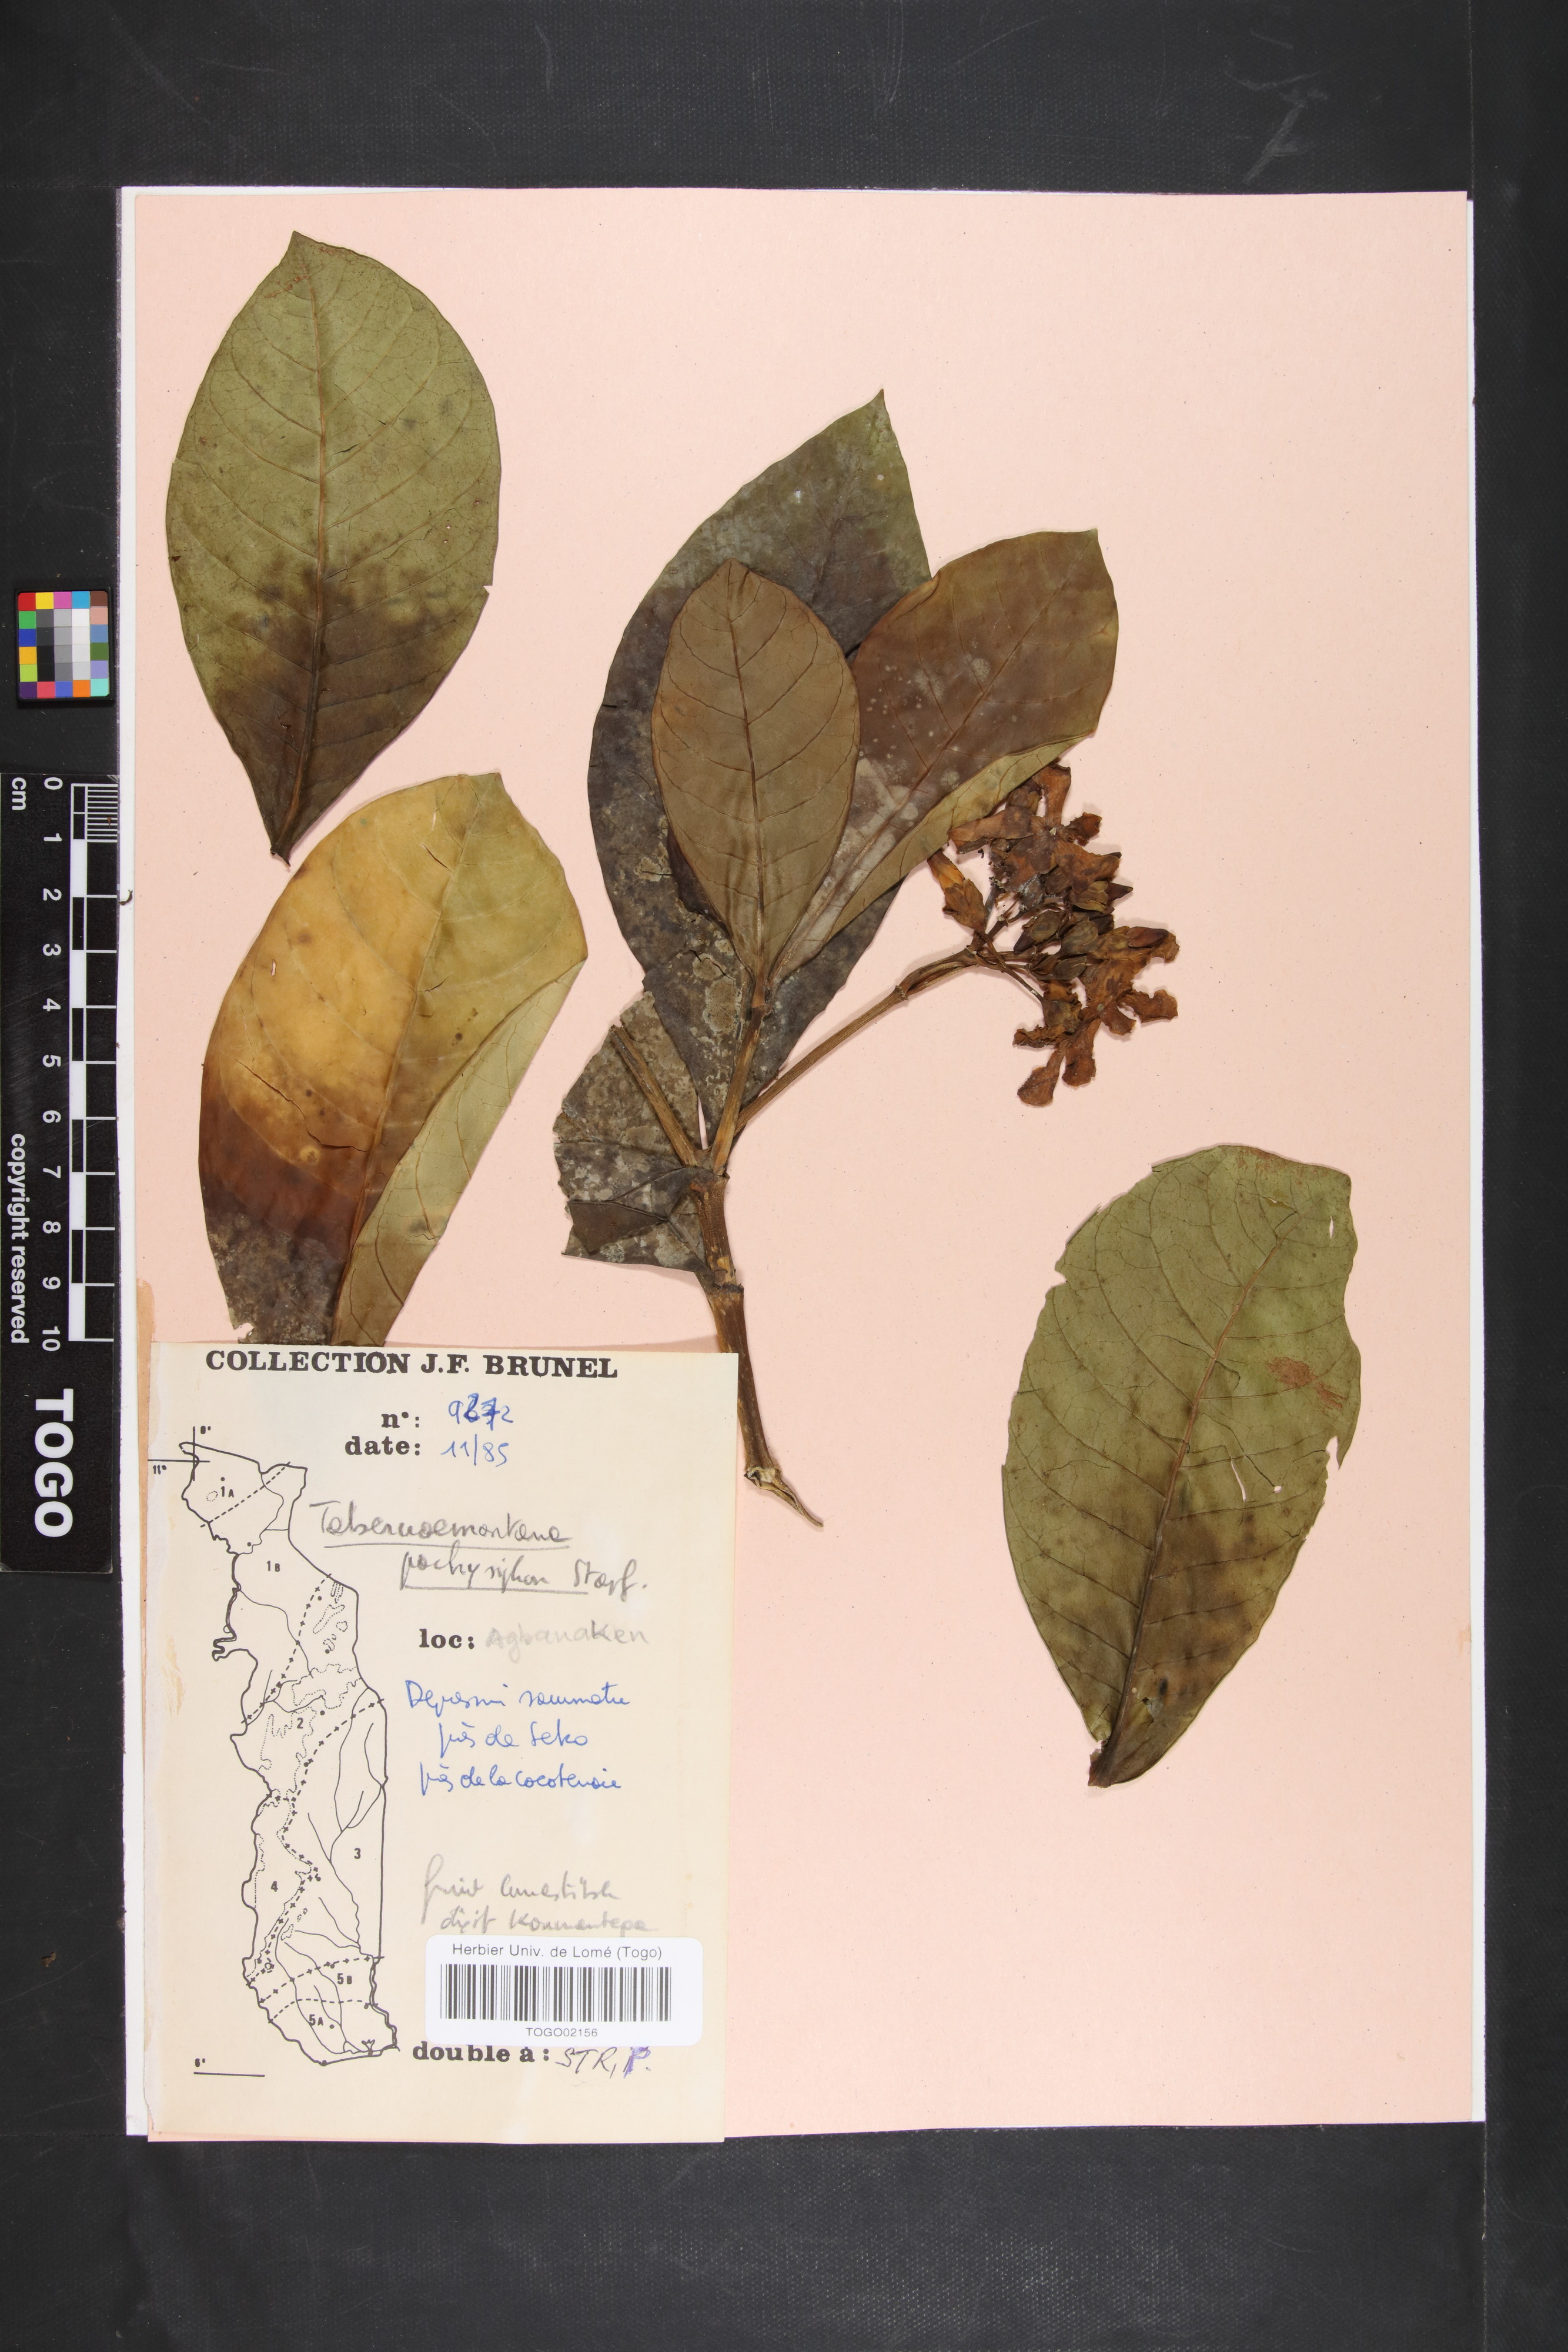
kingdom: Plantae
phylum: Tracheophyta
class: Magnoliopsida
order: Gentianales
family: Apocynaceae
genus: Tabernaemontana
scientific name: Tabernaemontana pachysiphon
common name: Giant pinwheel-flower
